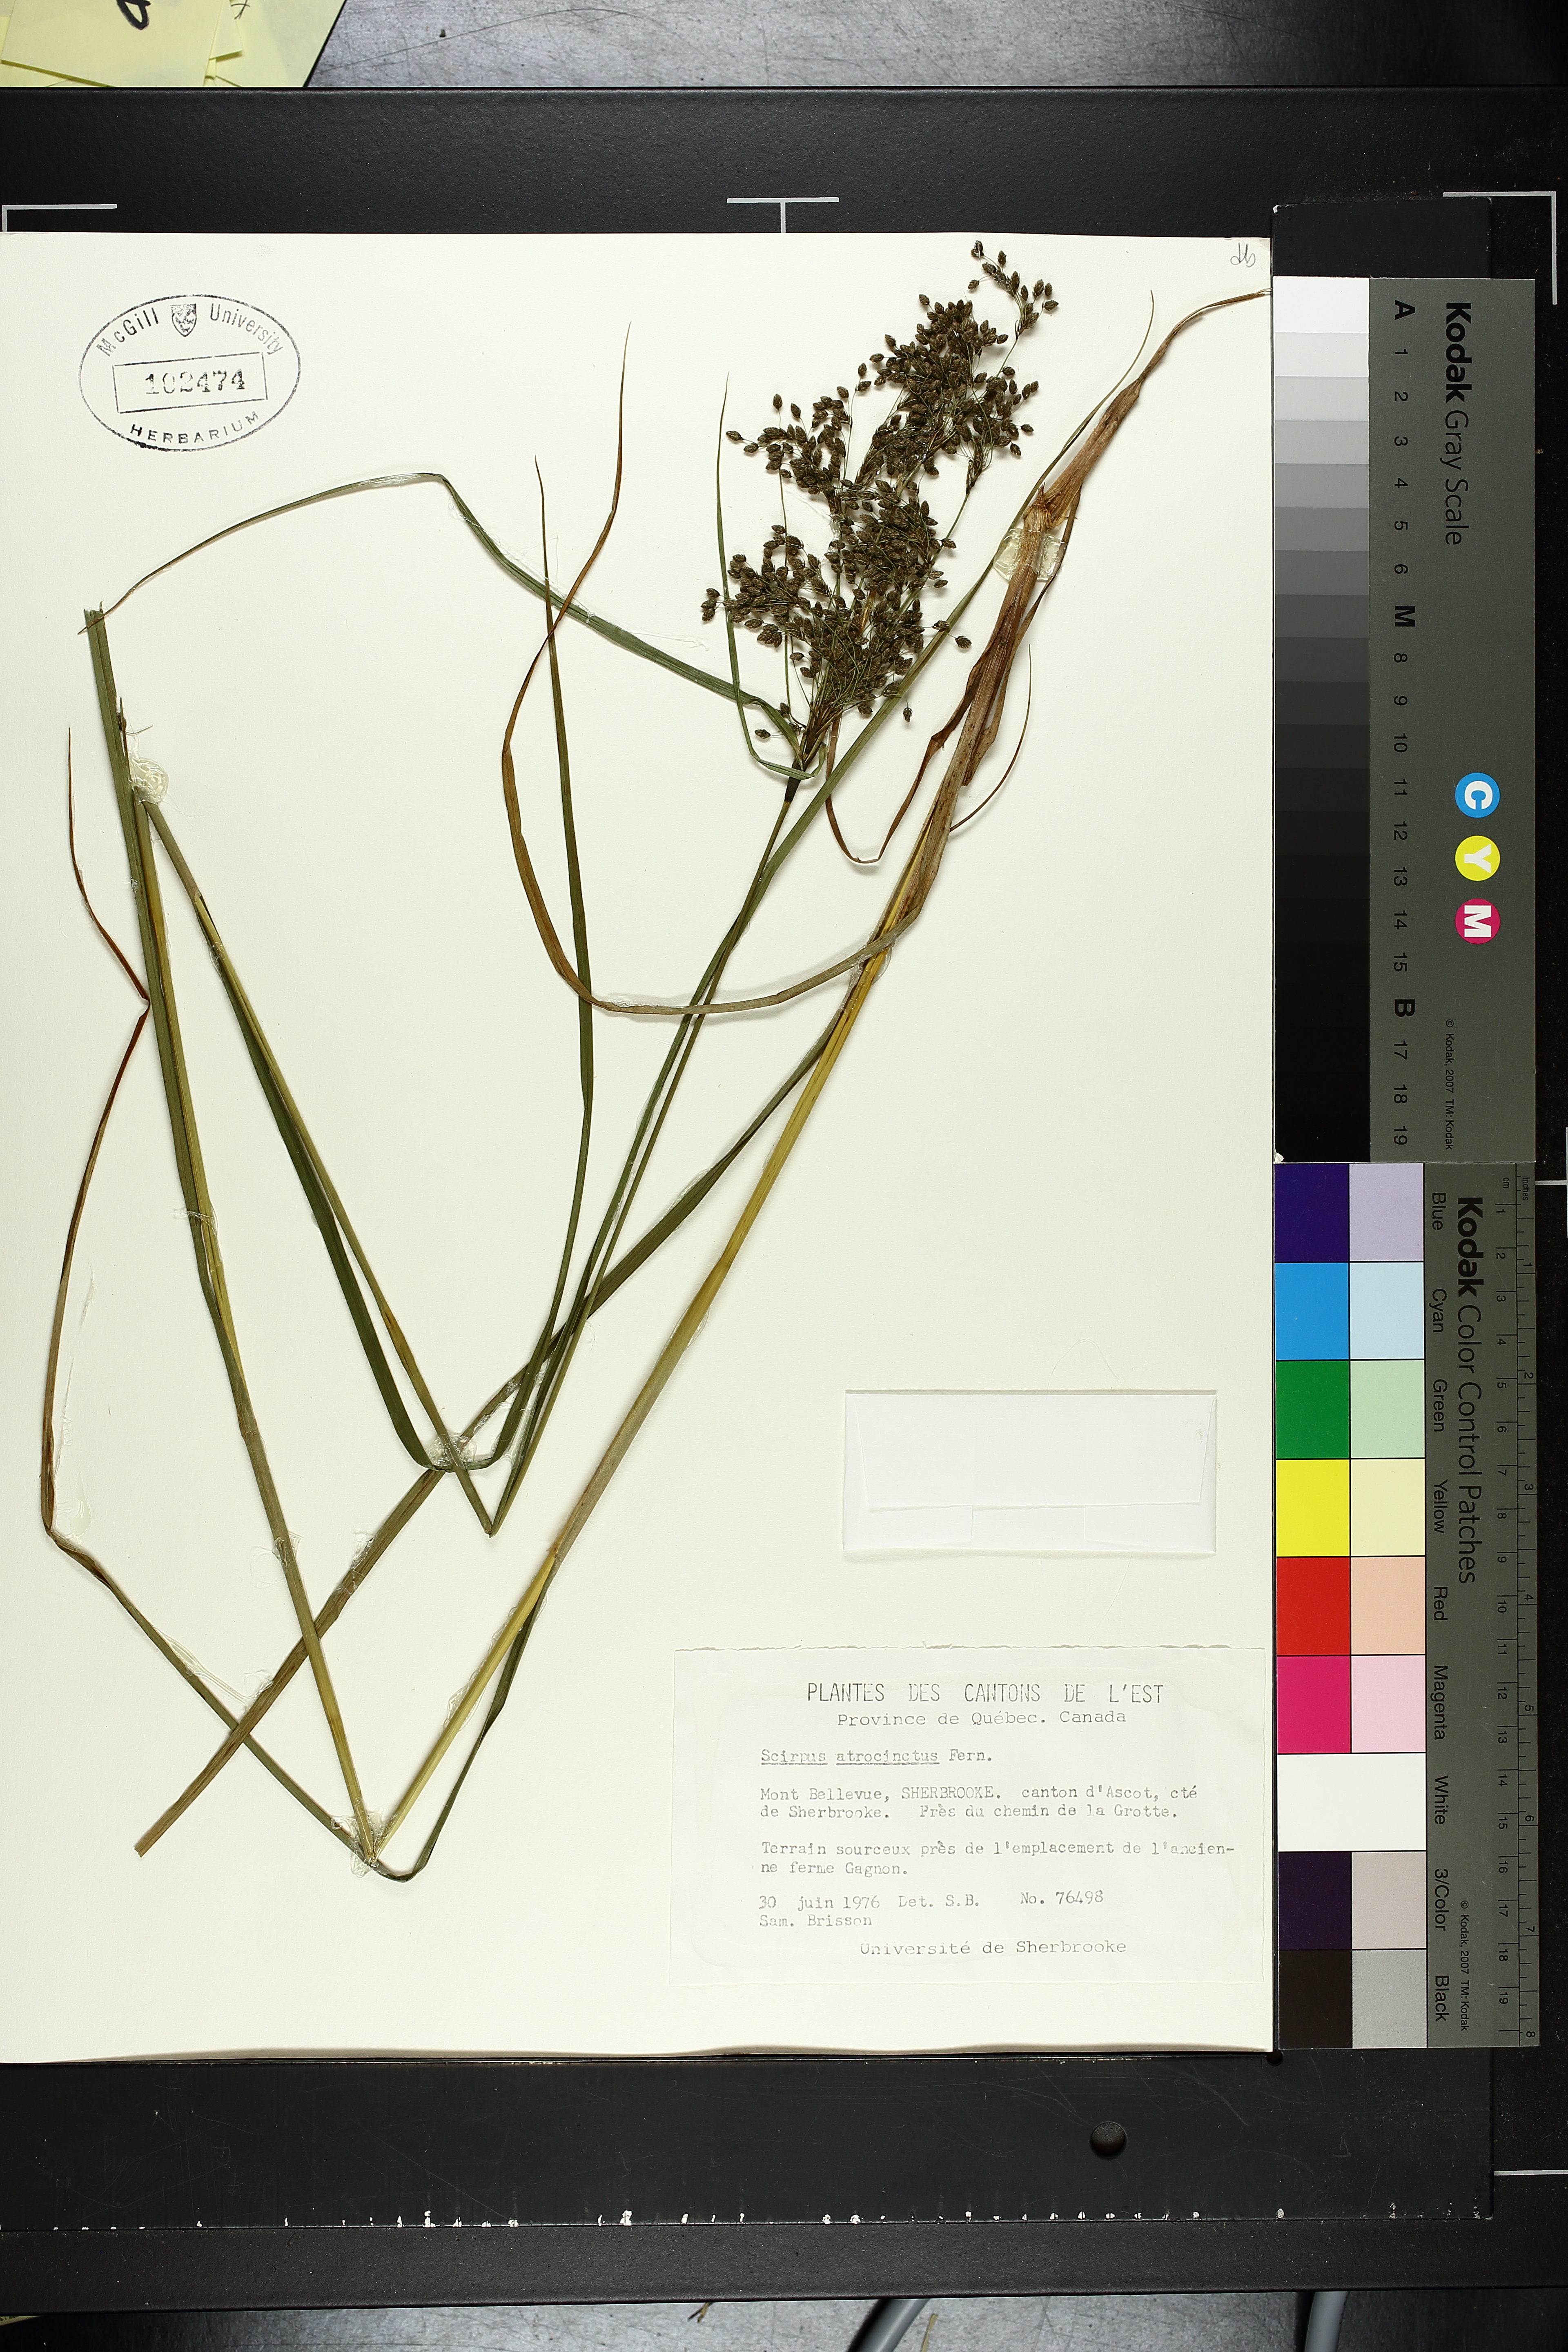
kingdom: Plantae
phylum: Tracheophyta
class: Liliopsida
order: Poales
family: Cyperaceae
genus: Scirpus
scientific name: Scirpus atrocinctus
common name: Black-girdled bulrush
